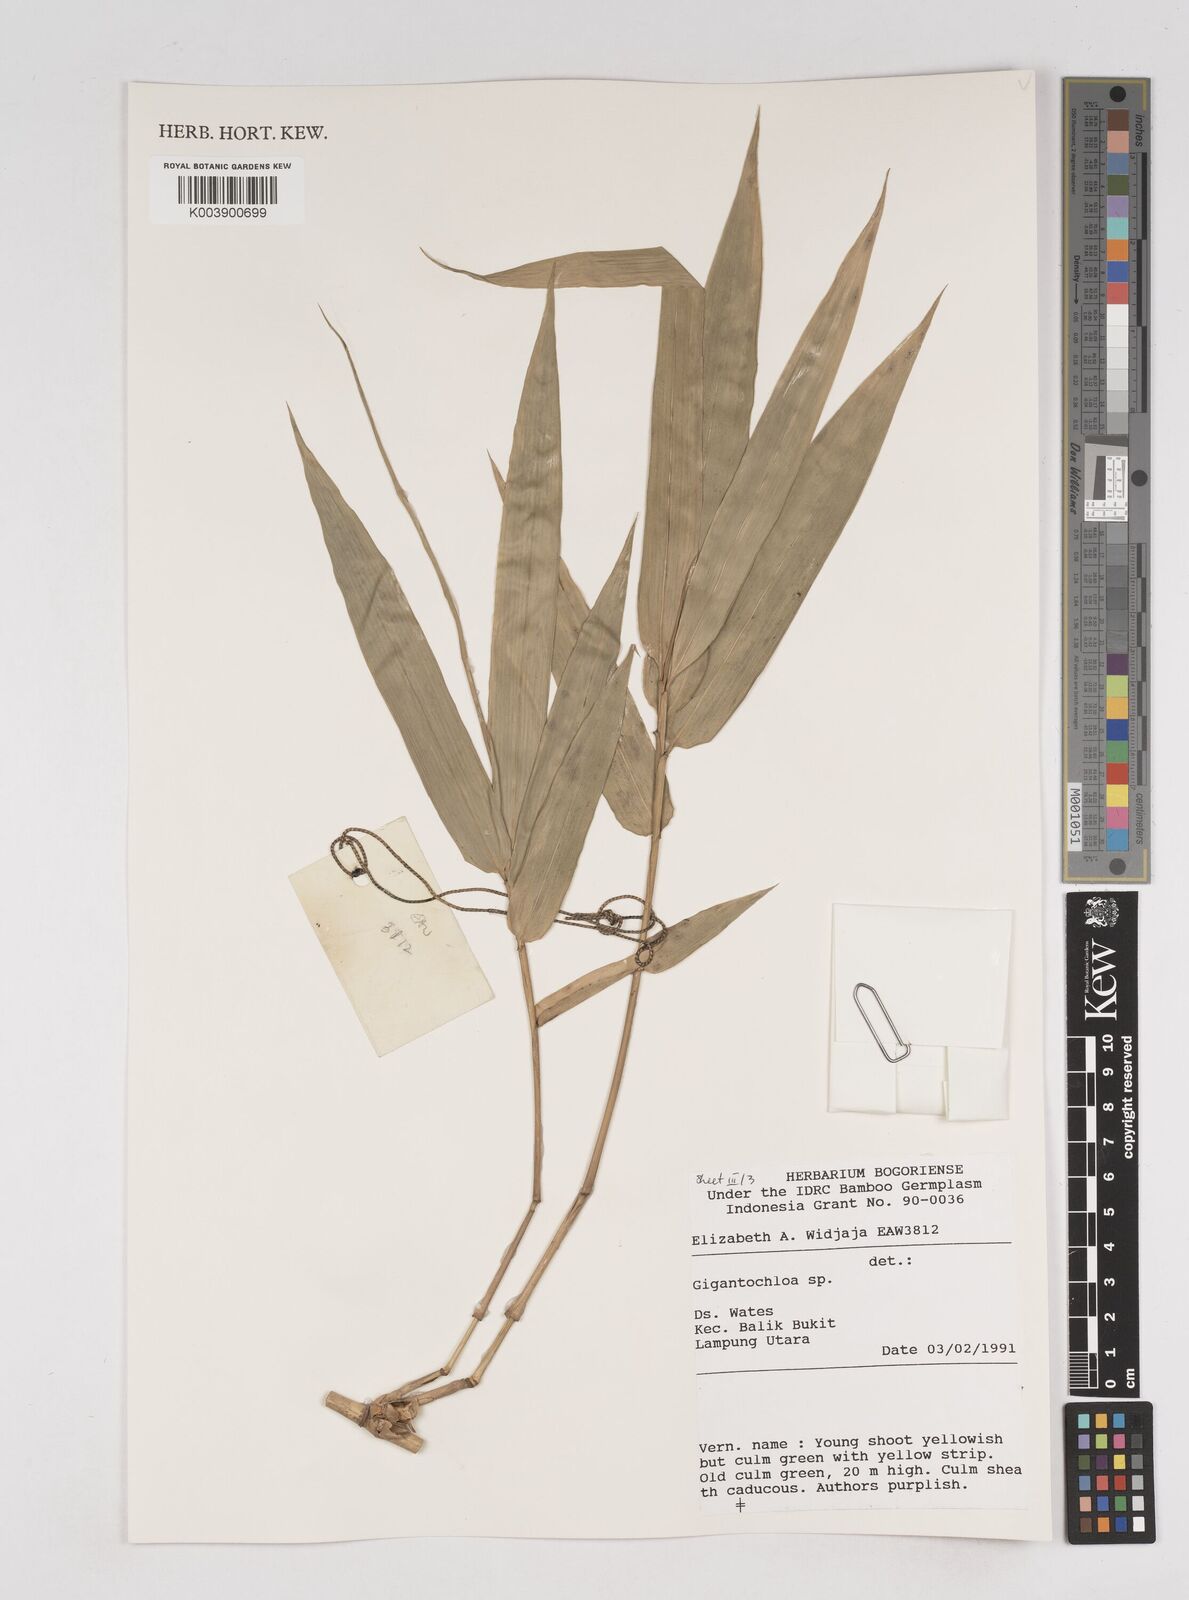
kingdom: Plantae
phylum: Tracheophyta
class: Liliopsida
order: Poales
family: Poaceae
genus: Gigantochloa
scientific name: Gigantochloa
